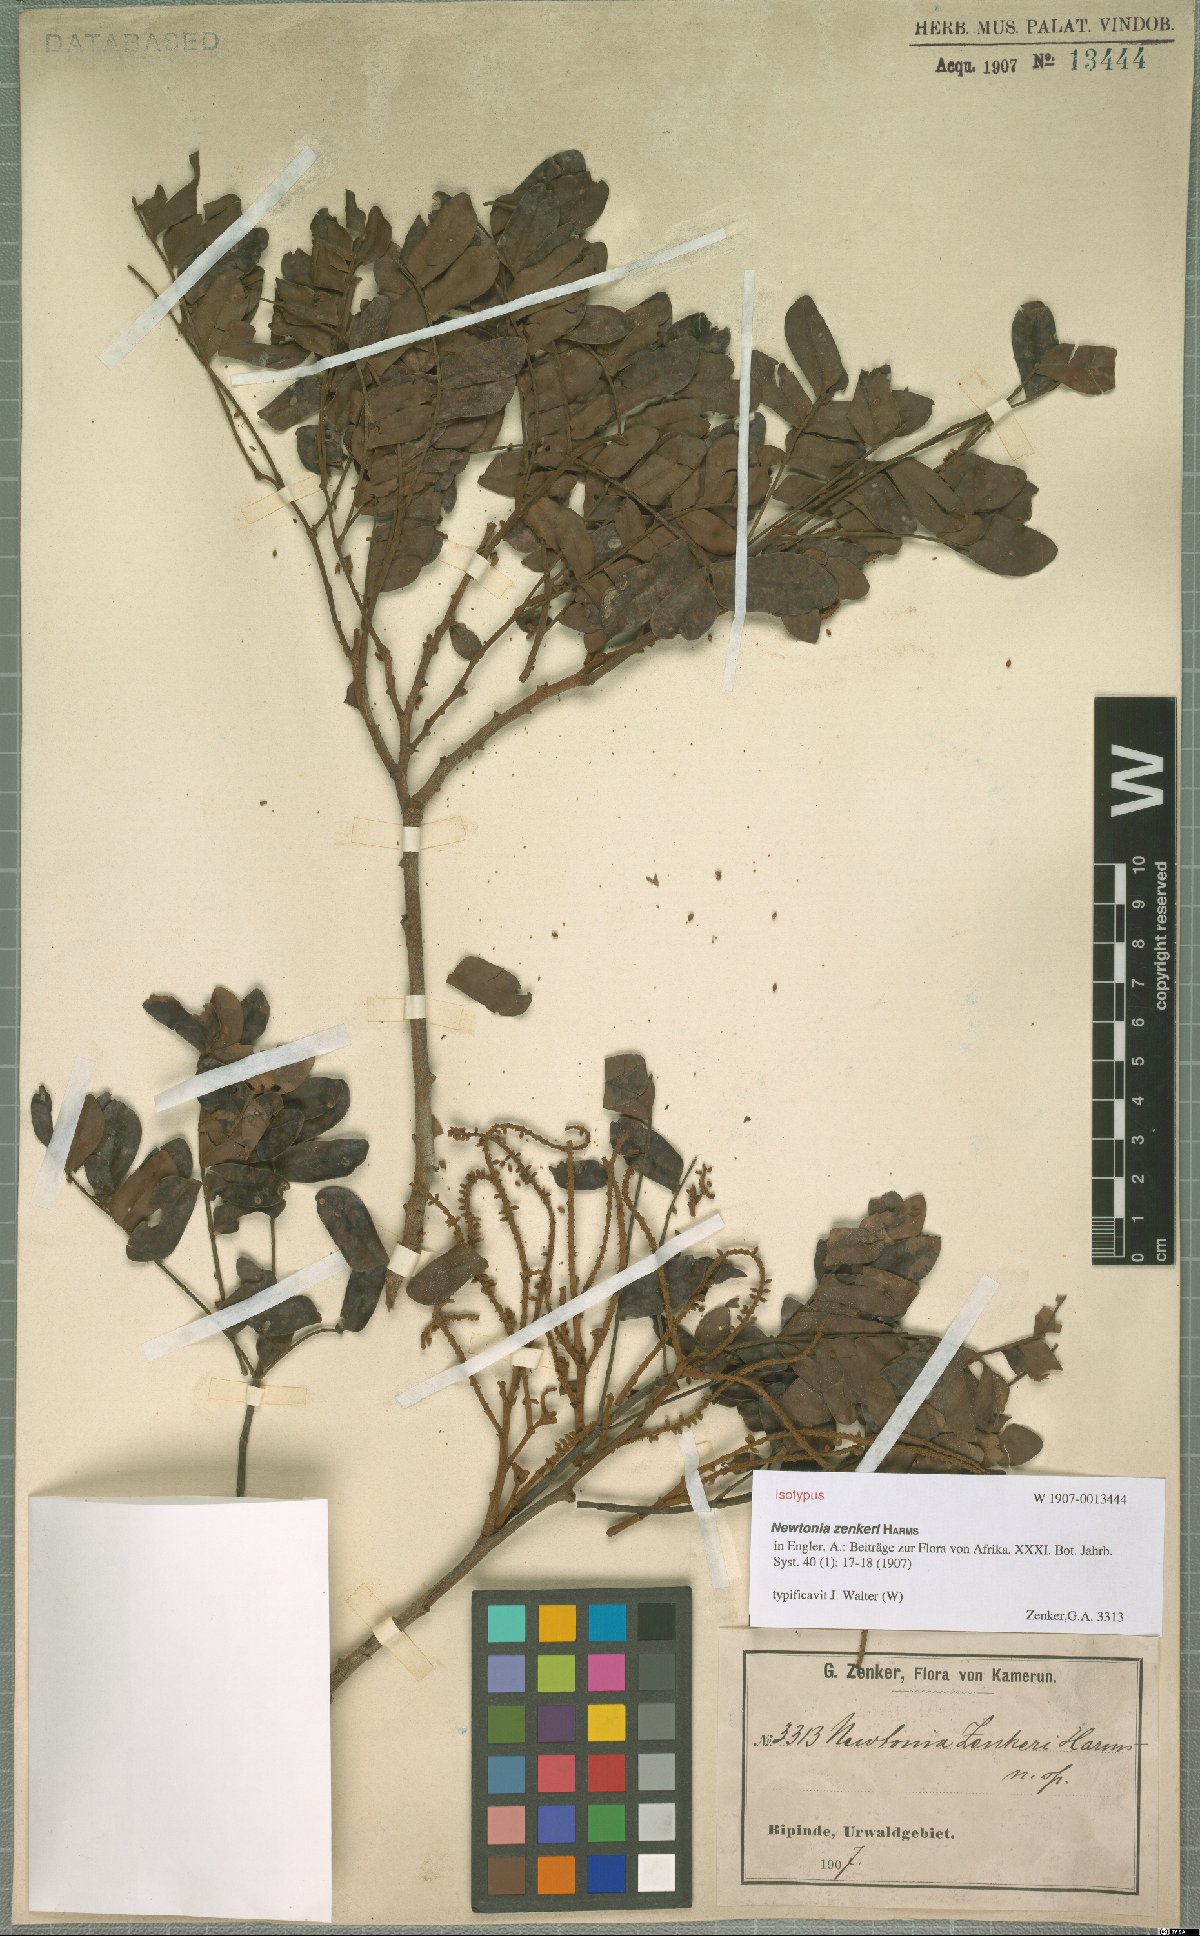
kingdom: Plantae
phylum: Tracheophyta
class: Magnoliopsida
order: Fabales
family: Fabaceae
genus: Newtonia
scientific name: Newtonia zenkeri
